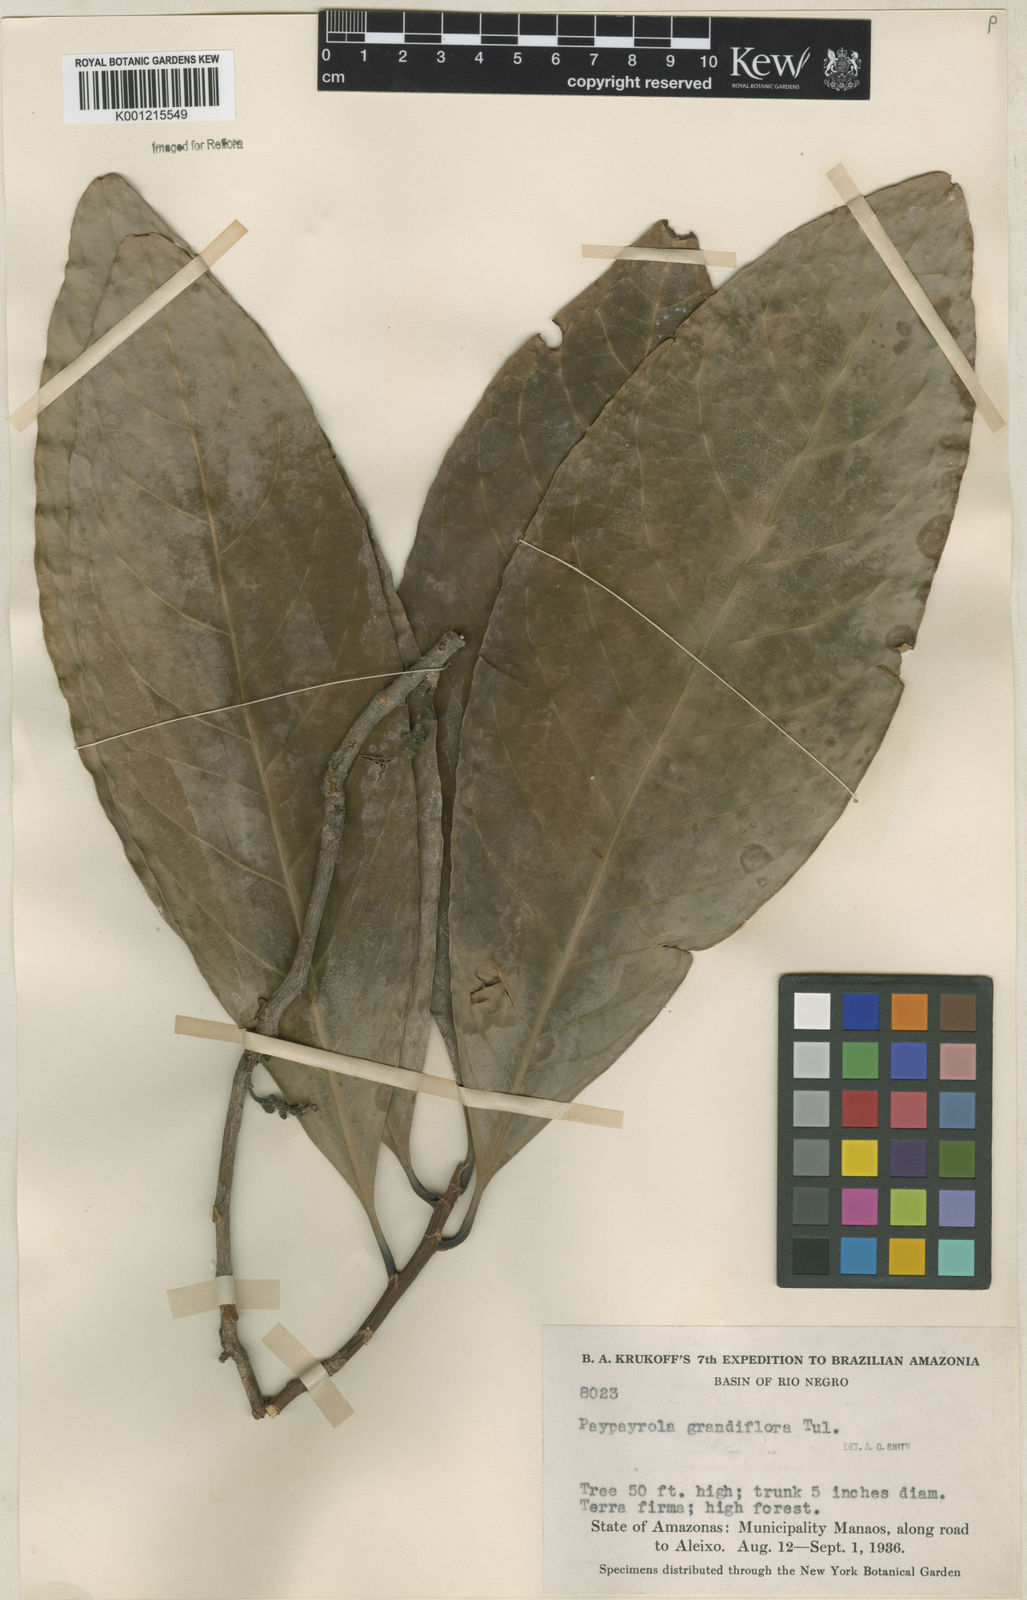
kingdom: Plantae
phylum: Tracheophyta
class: Magnoliopsida
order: Malpighiales
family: Violaceae
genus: Paypayrola
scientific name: Paypayrola grandiflora
